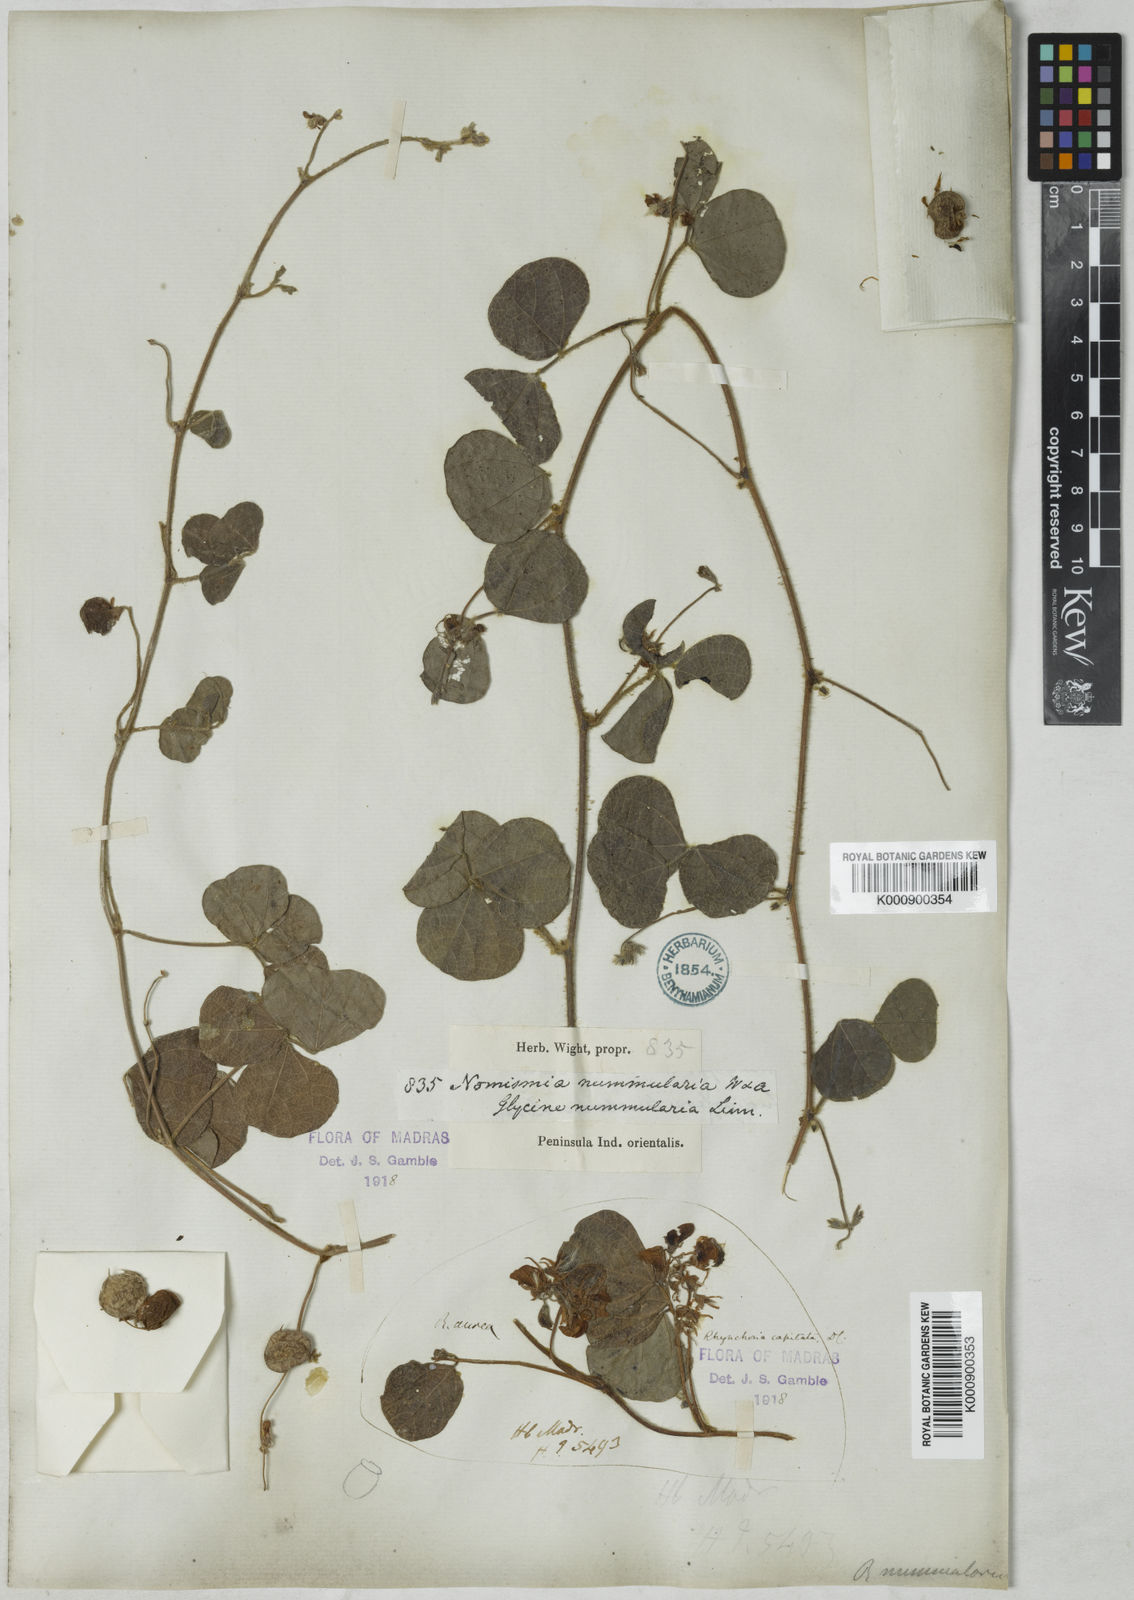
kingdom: Plantae
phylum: Tracheophyta
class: Magnoliopsida
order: Fabales
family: Fabaceae
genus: Rhynchosia
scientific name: Rhynchosia nummularia
